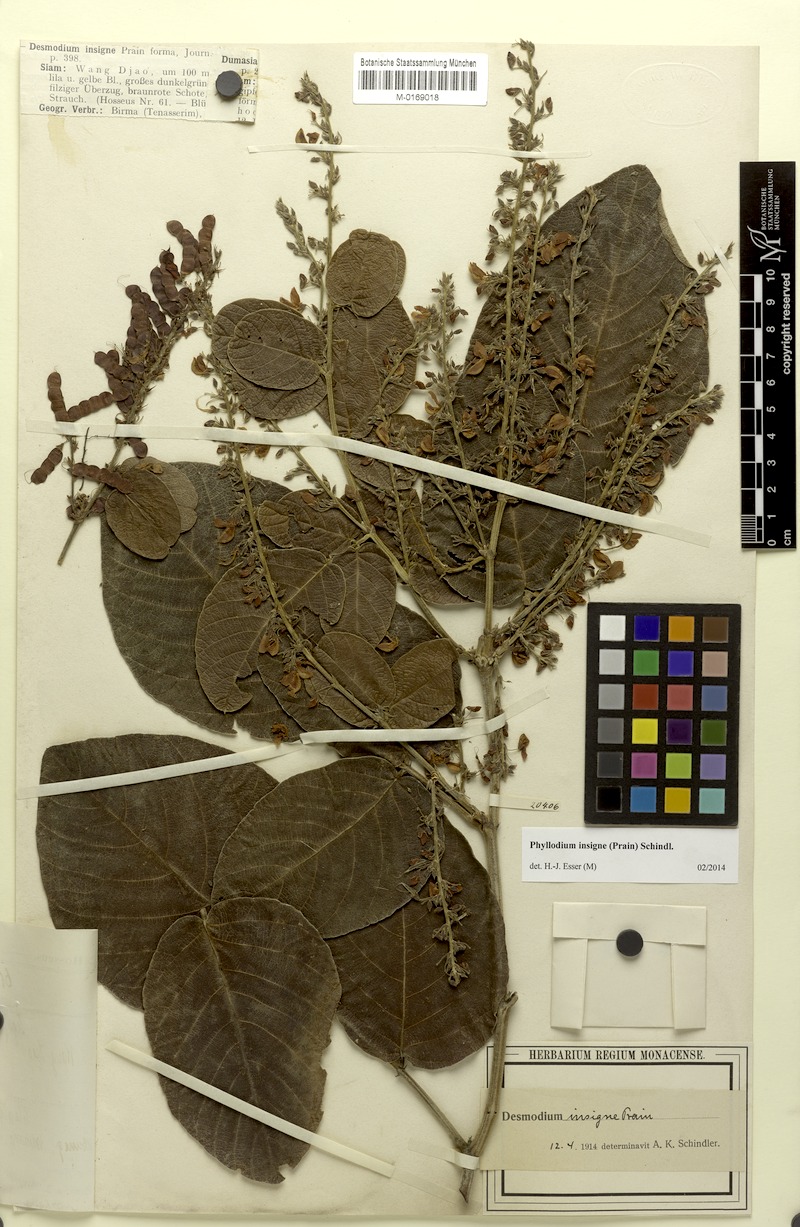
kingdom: Plantae
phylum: Tracheophyta
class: Magnoliopsida
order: Fabales
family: Fabaceae
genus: Phyllodium
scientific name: Phyllodium insigne
